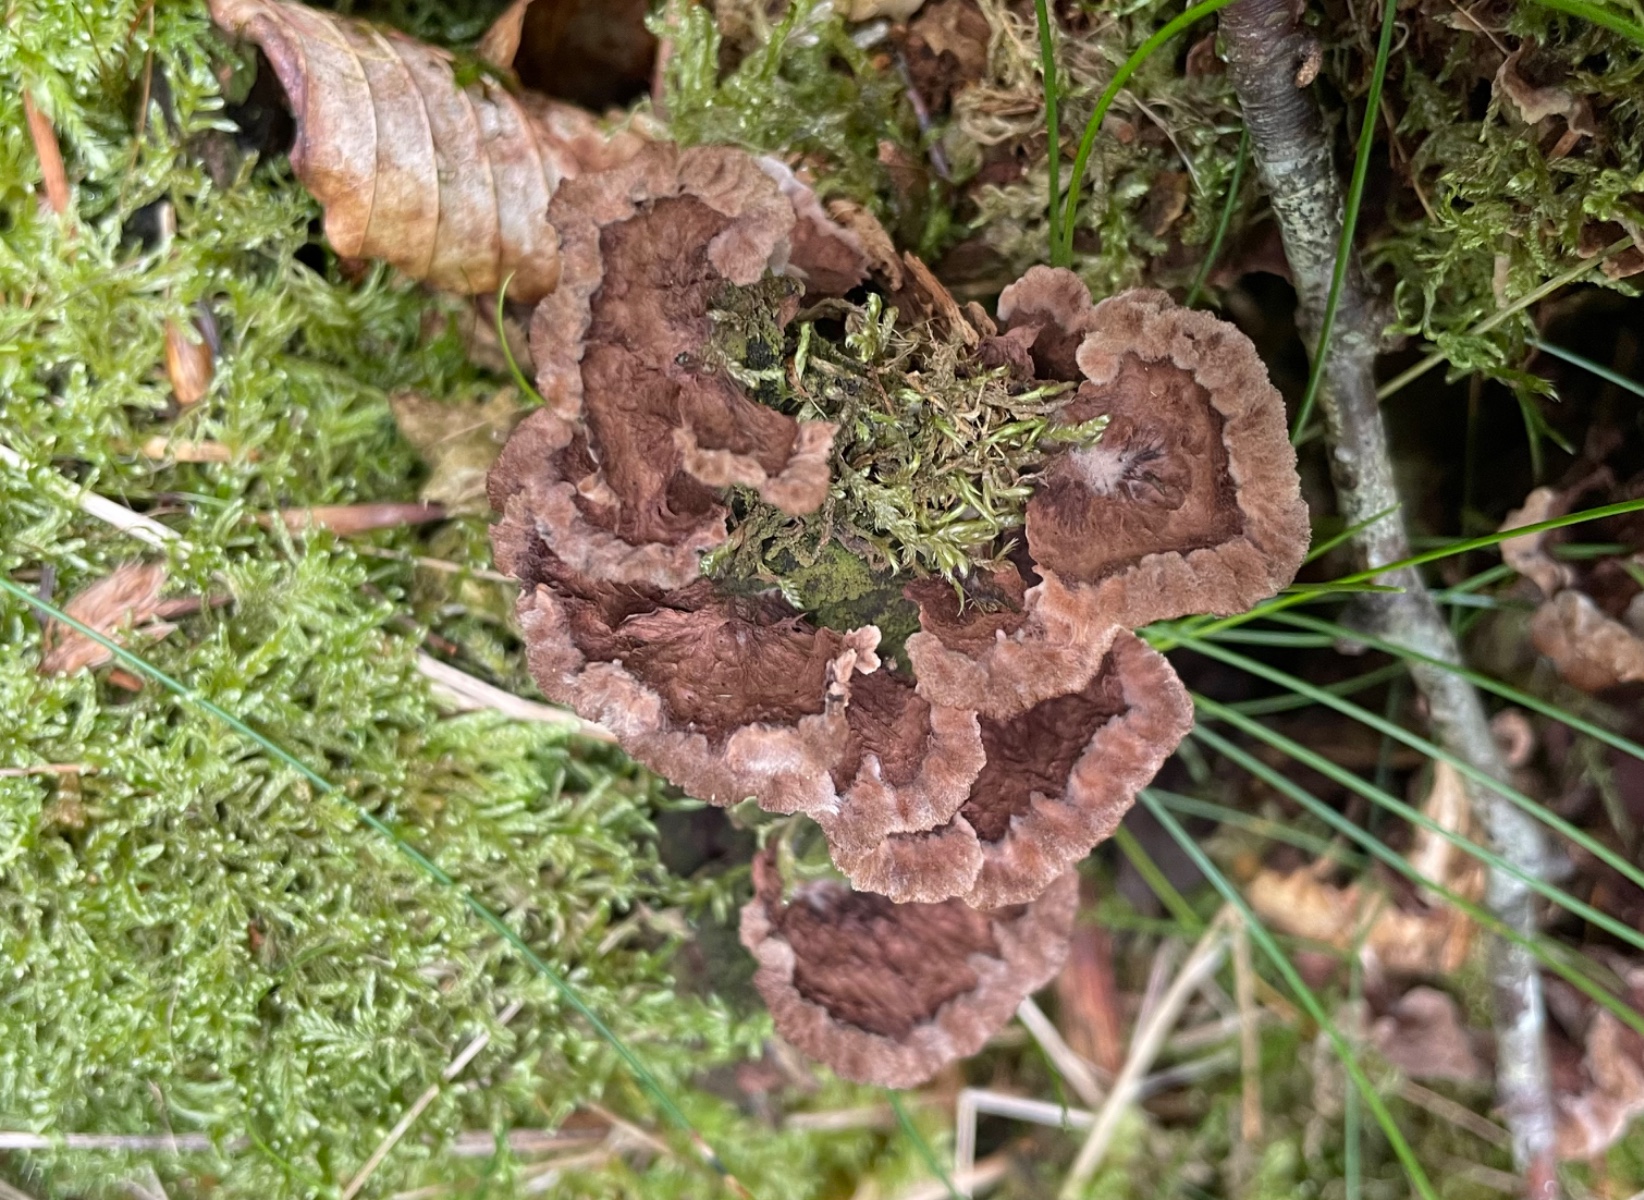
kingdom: Fungi
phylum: Basidiomycota
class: Agaricomycetes
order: Thelephorales
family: Thelephoraceae
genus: Thelephora
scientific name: Thelephora terrestris
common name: fliget frynsesvamp
